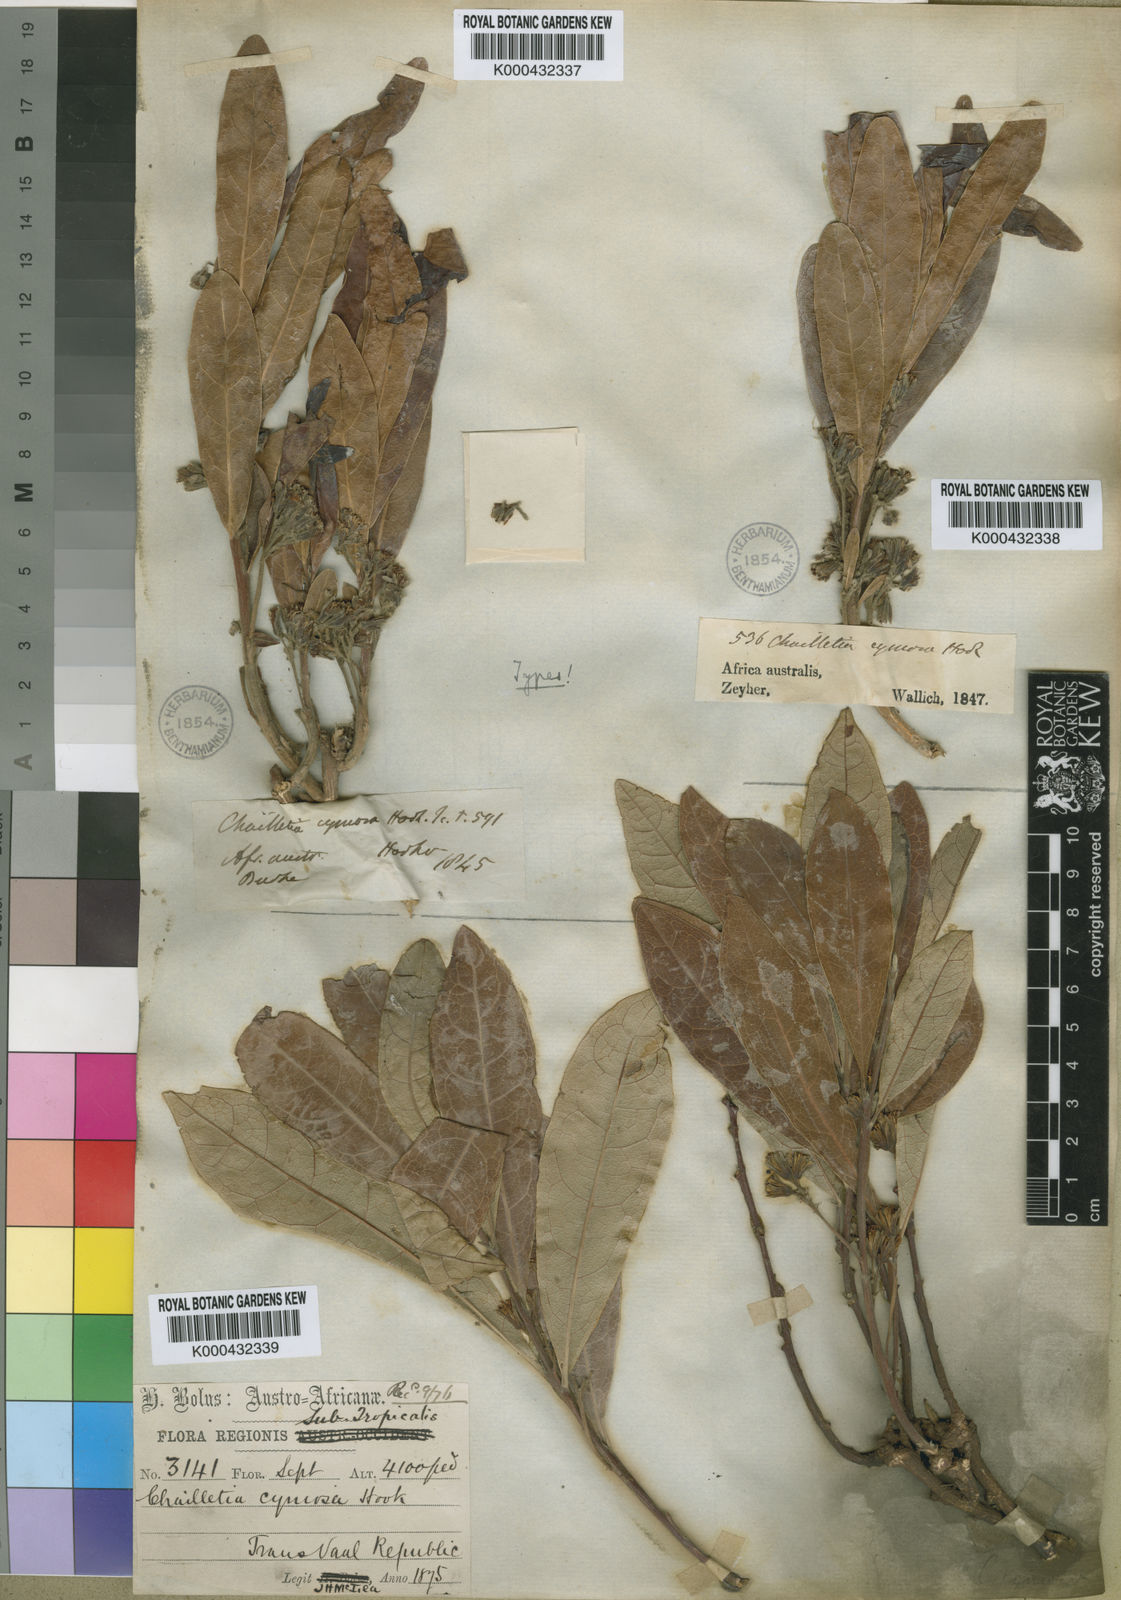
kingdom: Plantae
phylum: Tracheophyta
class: Magnoliopsida
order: Malpighiales
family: Dichapetalaceae
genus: Dichapetalum
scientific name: Dichapetalum cymosum
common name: Poison leaf
